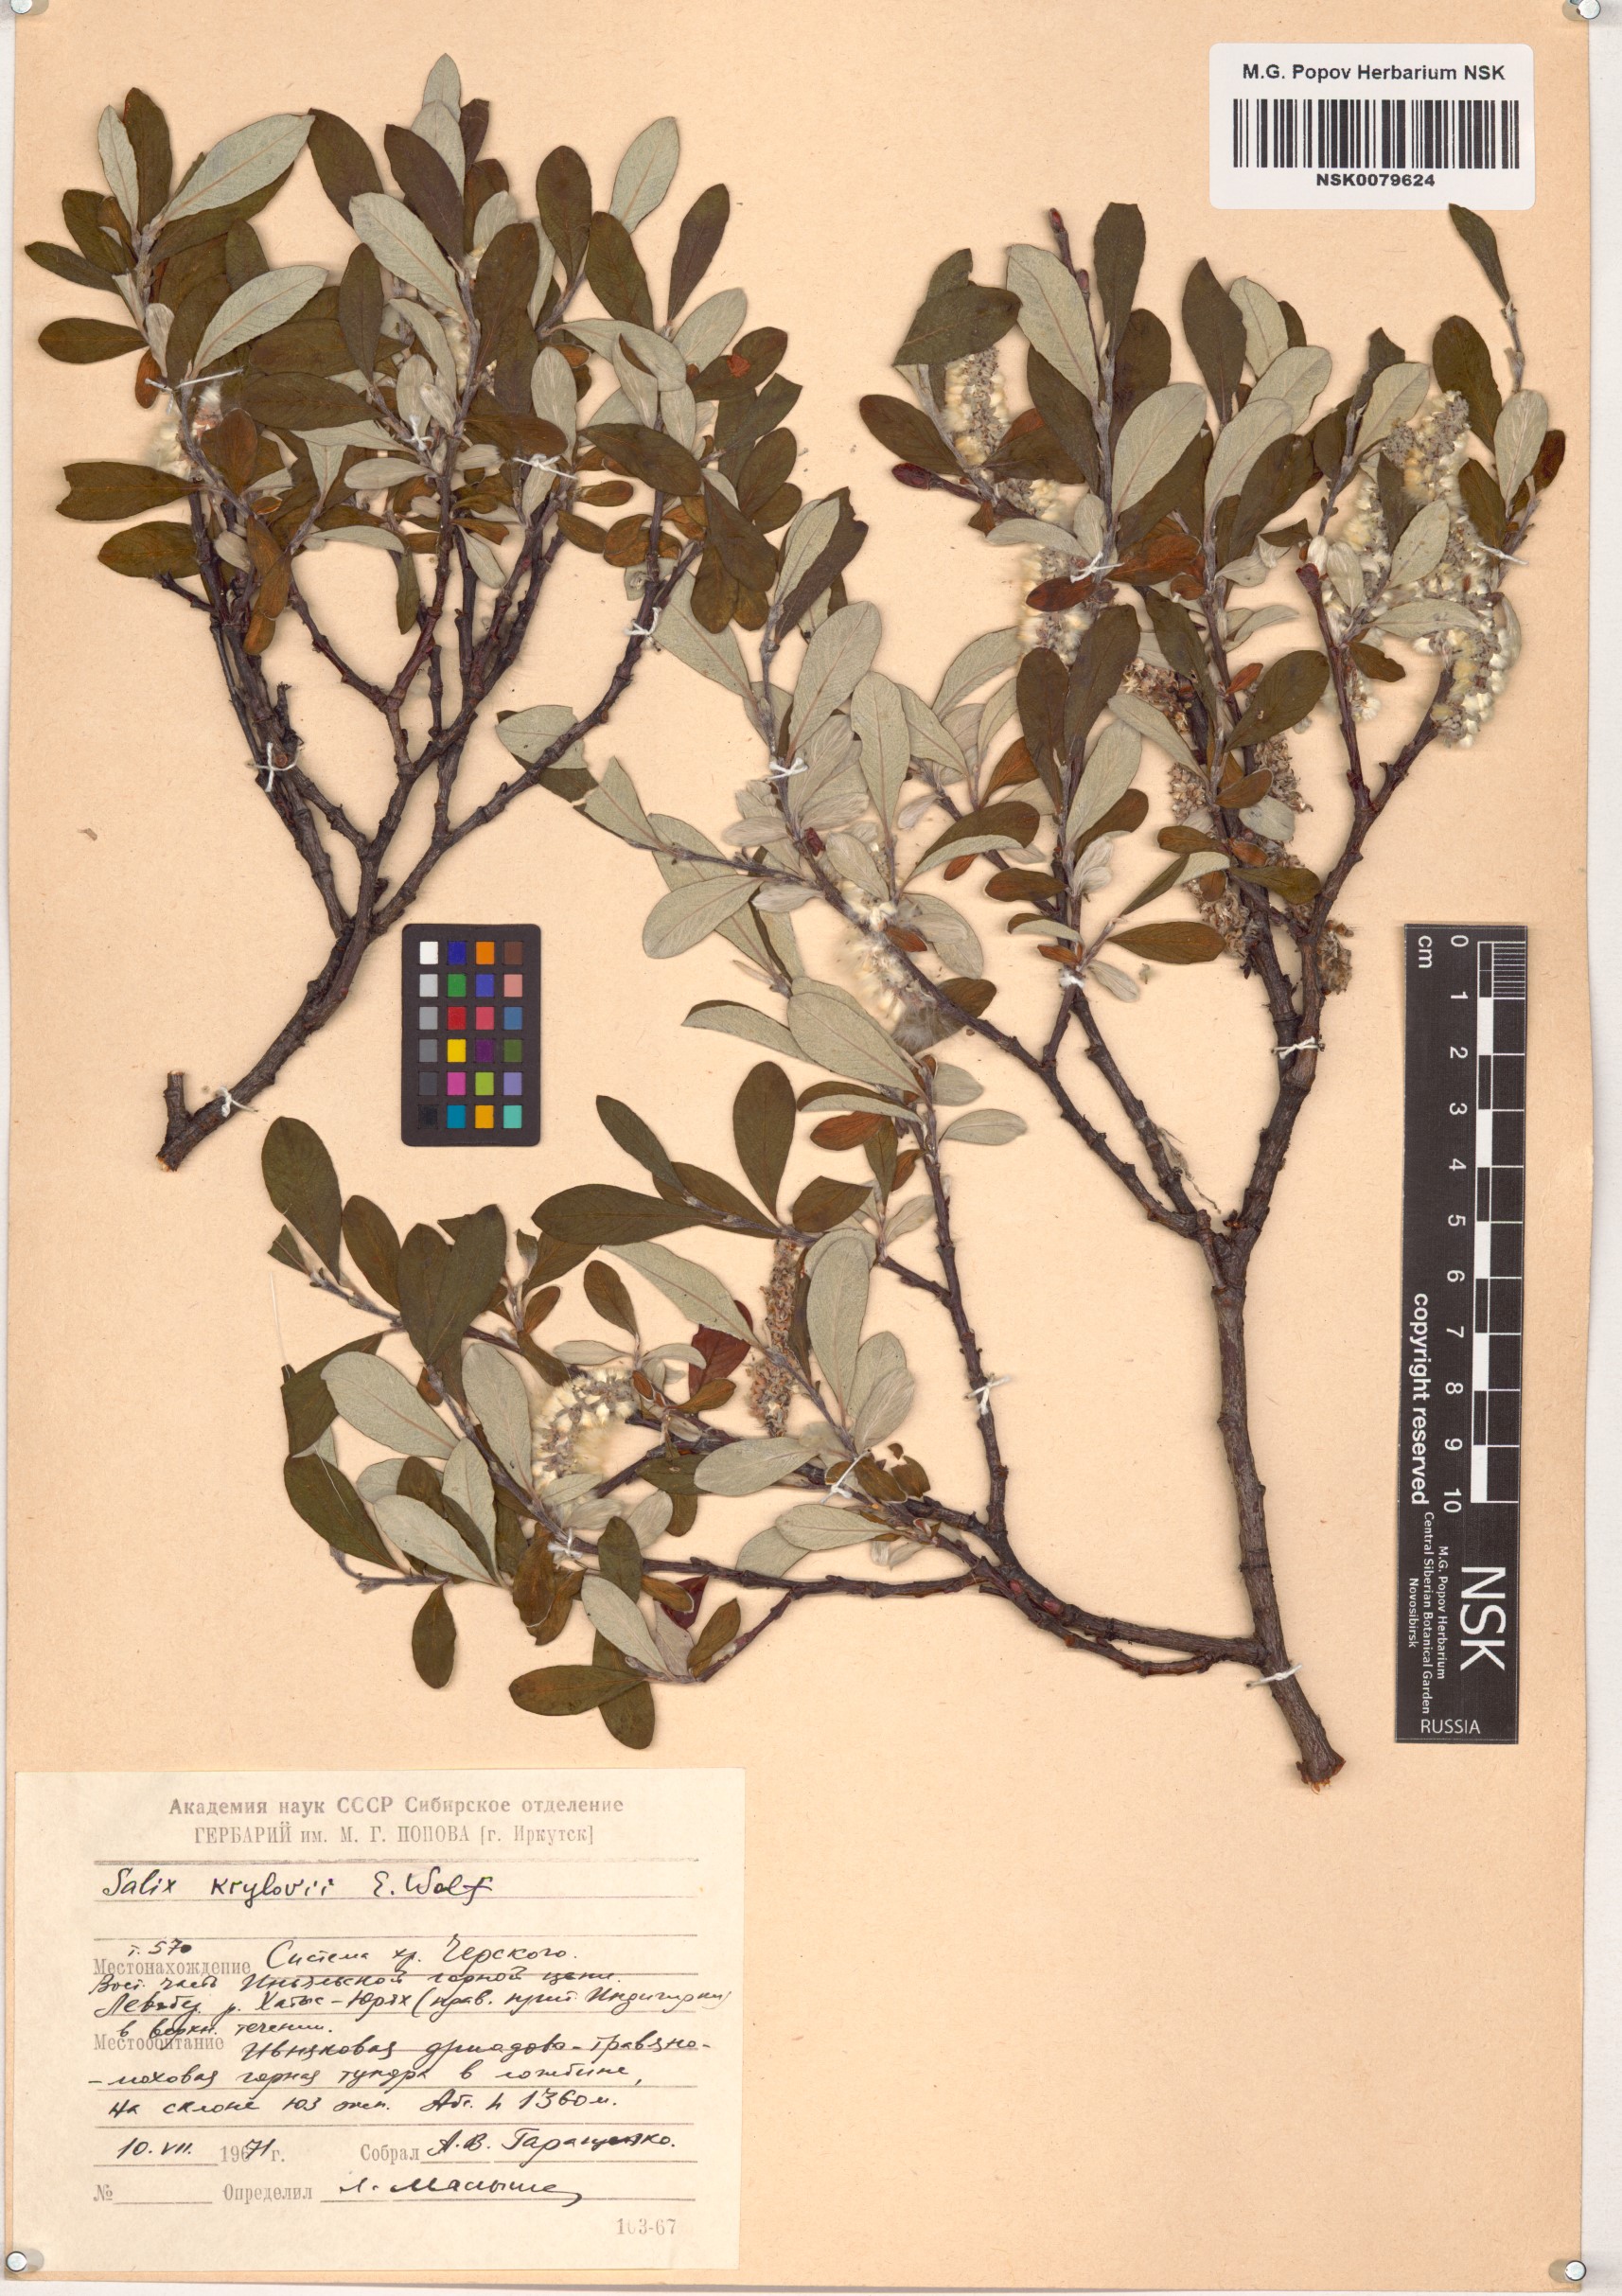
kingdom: Plantae
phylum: Tracheophyta
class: Magnoliopsida
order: Malpighiales
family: Salicaceae
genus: Salix
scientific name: Salix krylovii
